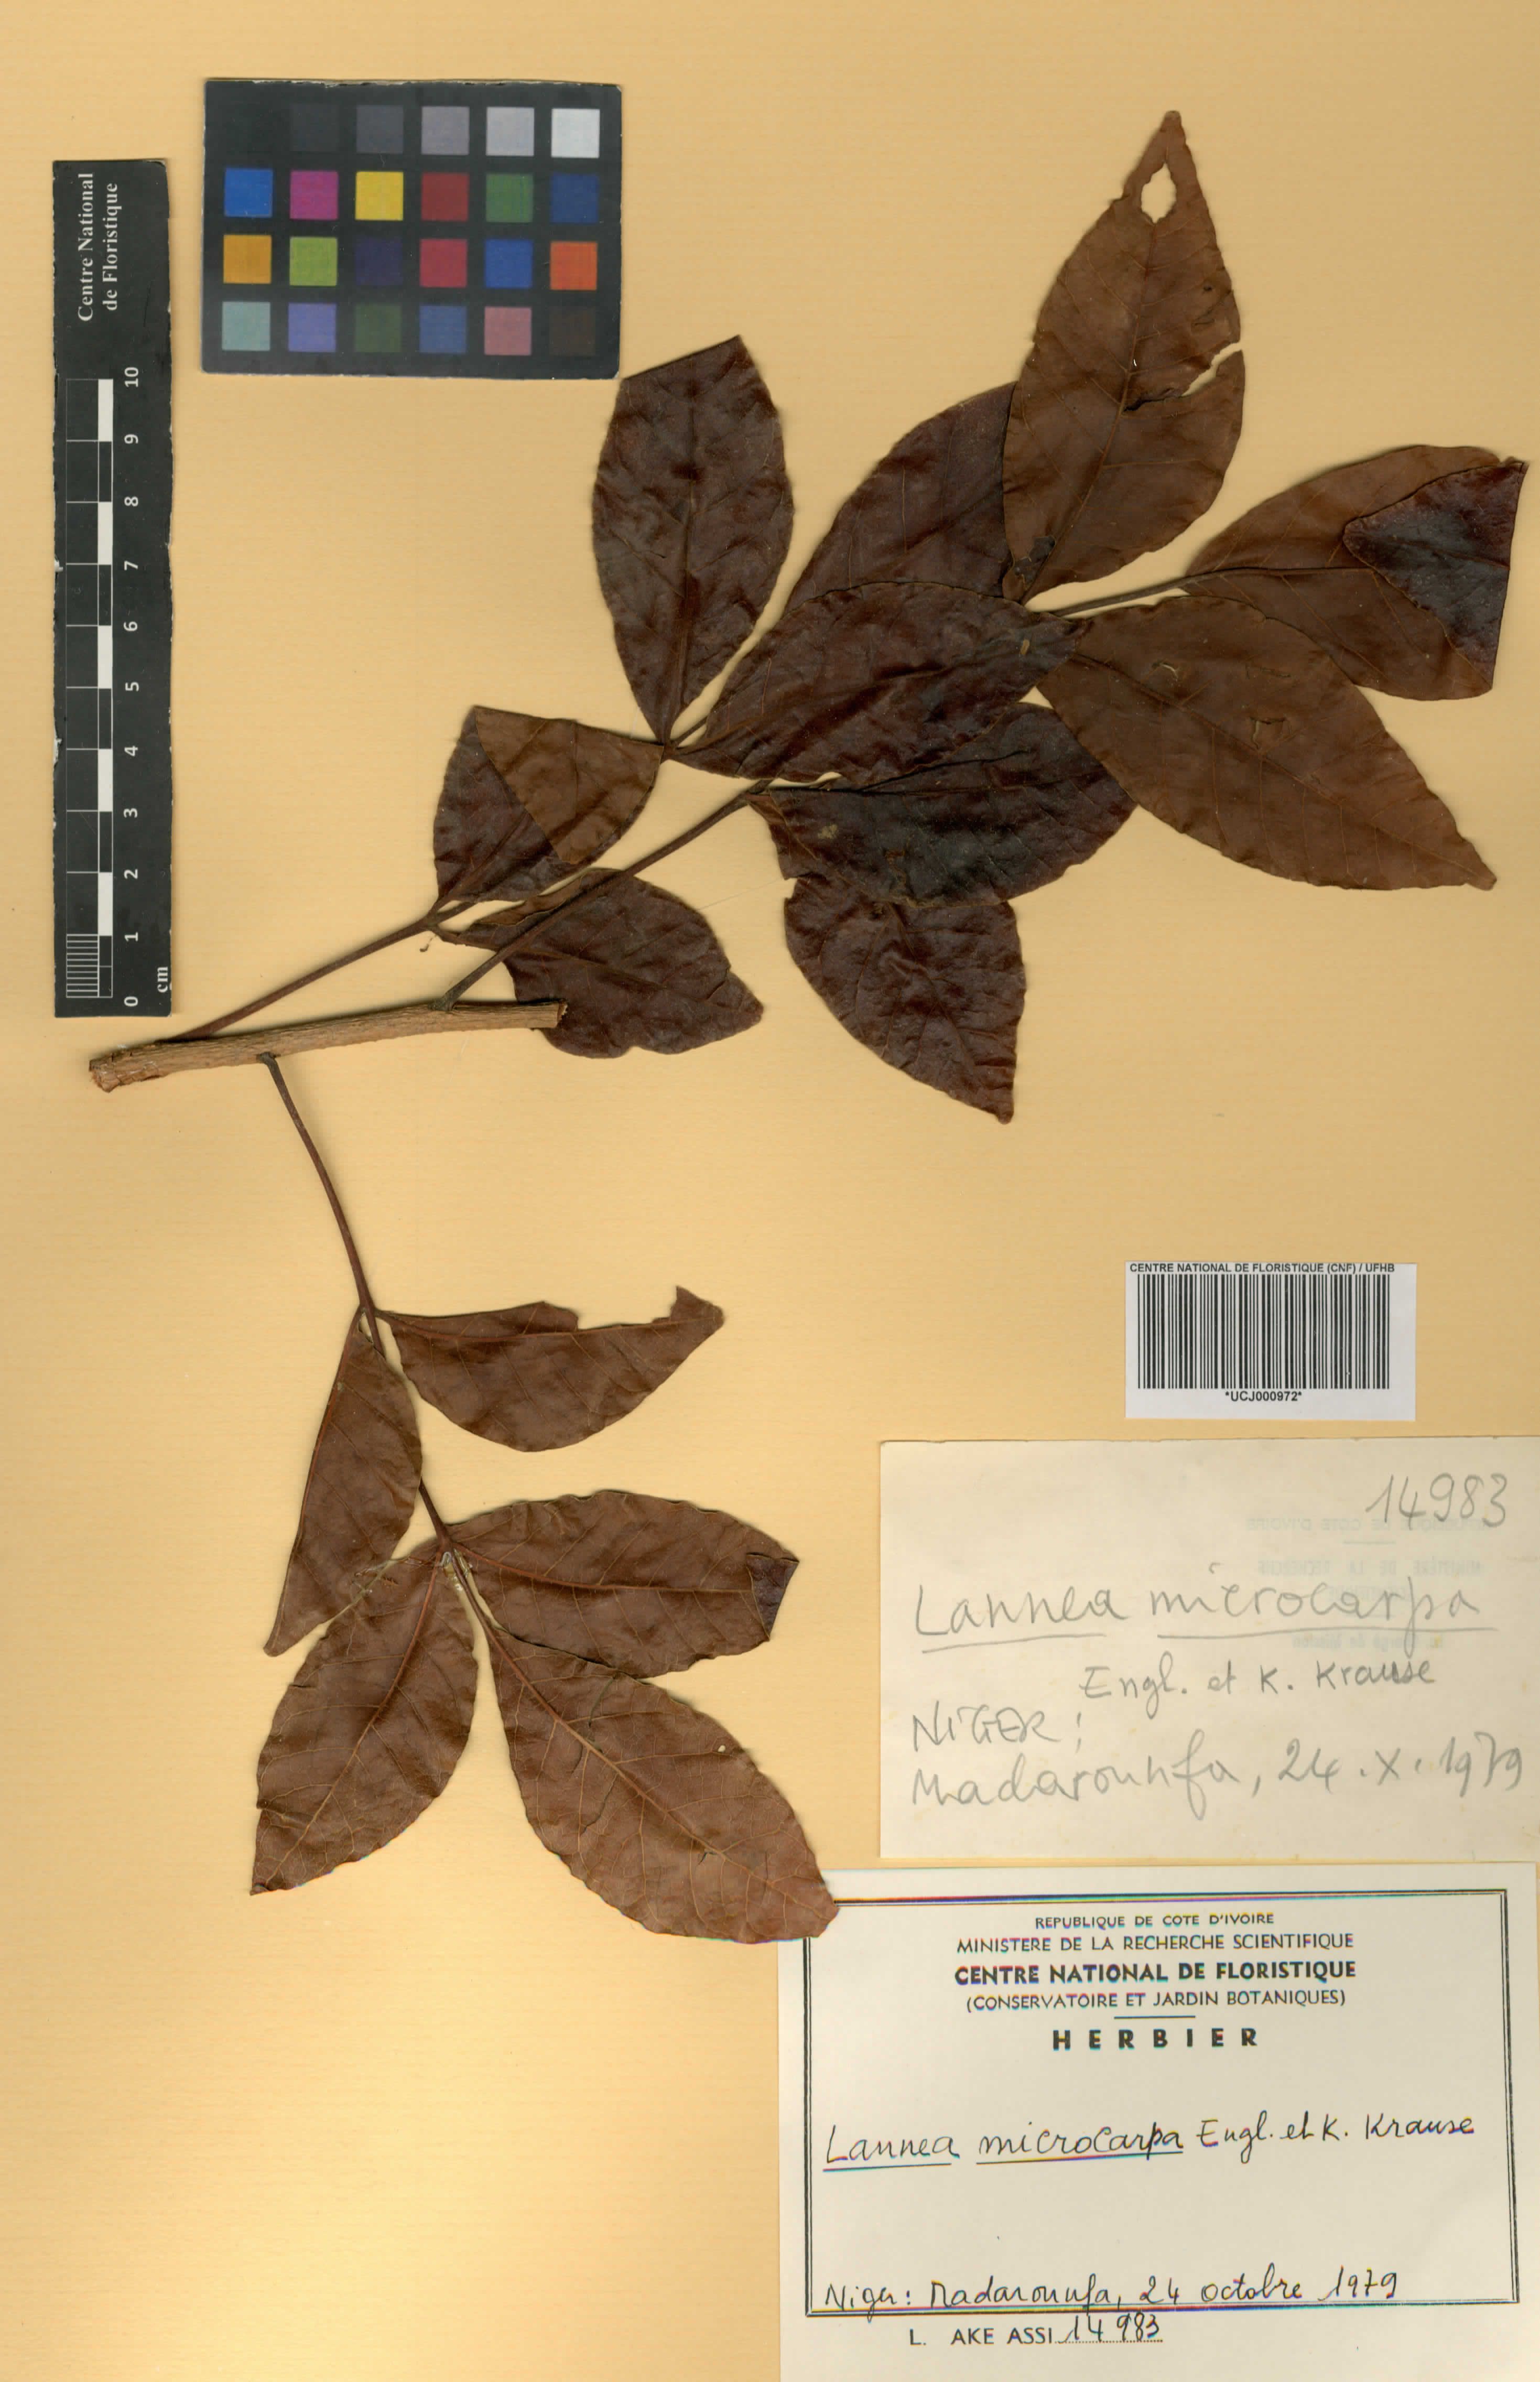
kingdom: Plantae
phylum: Tracheophyta
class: Magnoliopsida
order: Sapindales
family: Anacardiaceae
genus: Lannea
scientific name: Lannea microcarpa
